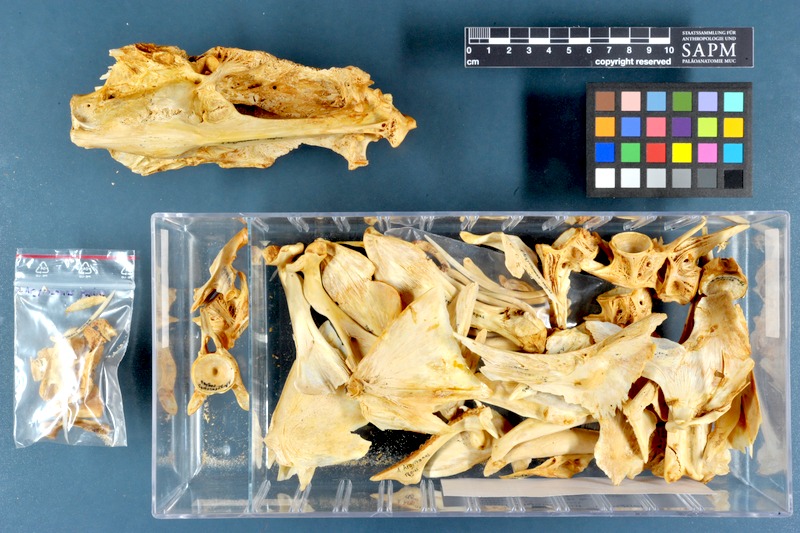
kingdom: Animalia
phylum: Chordata
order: Perciformes
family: Sciaenidae
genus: Argyrosomus
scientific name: Argyrosomus regius
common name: Meagre
